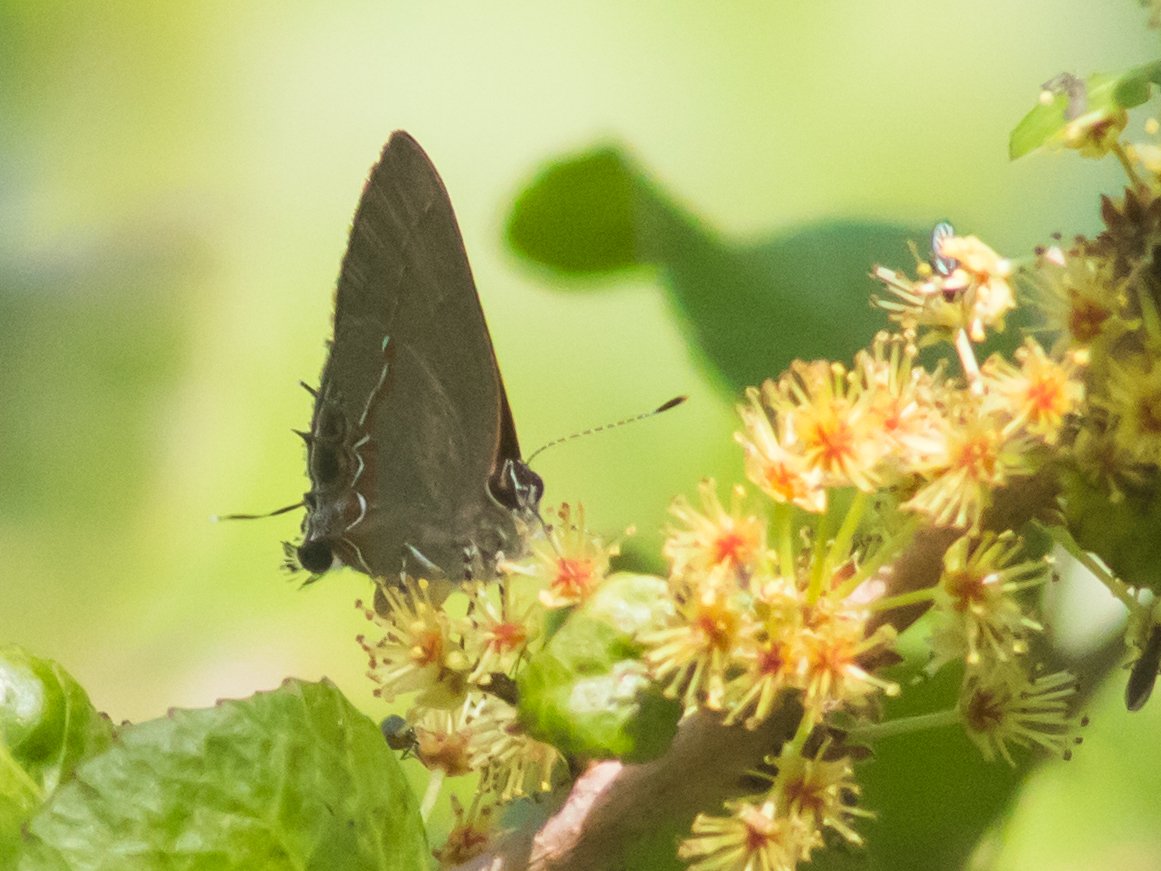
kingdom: Animalia
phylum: Arthropoda
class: Insecta
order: Lepidoptera
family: Lycaenidae
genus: Calycopis
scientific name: Calycopis isobeon
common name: Dusky-blue Groundstreak
